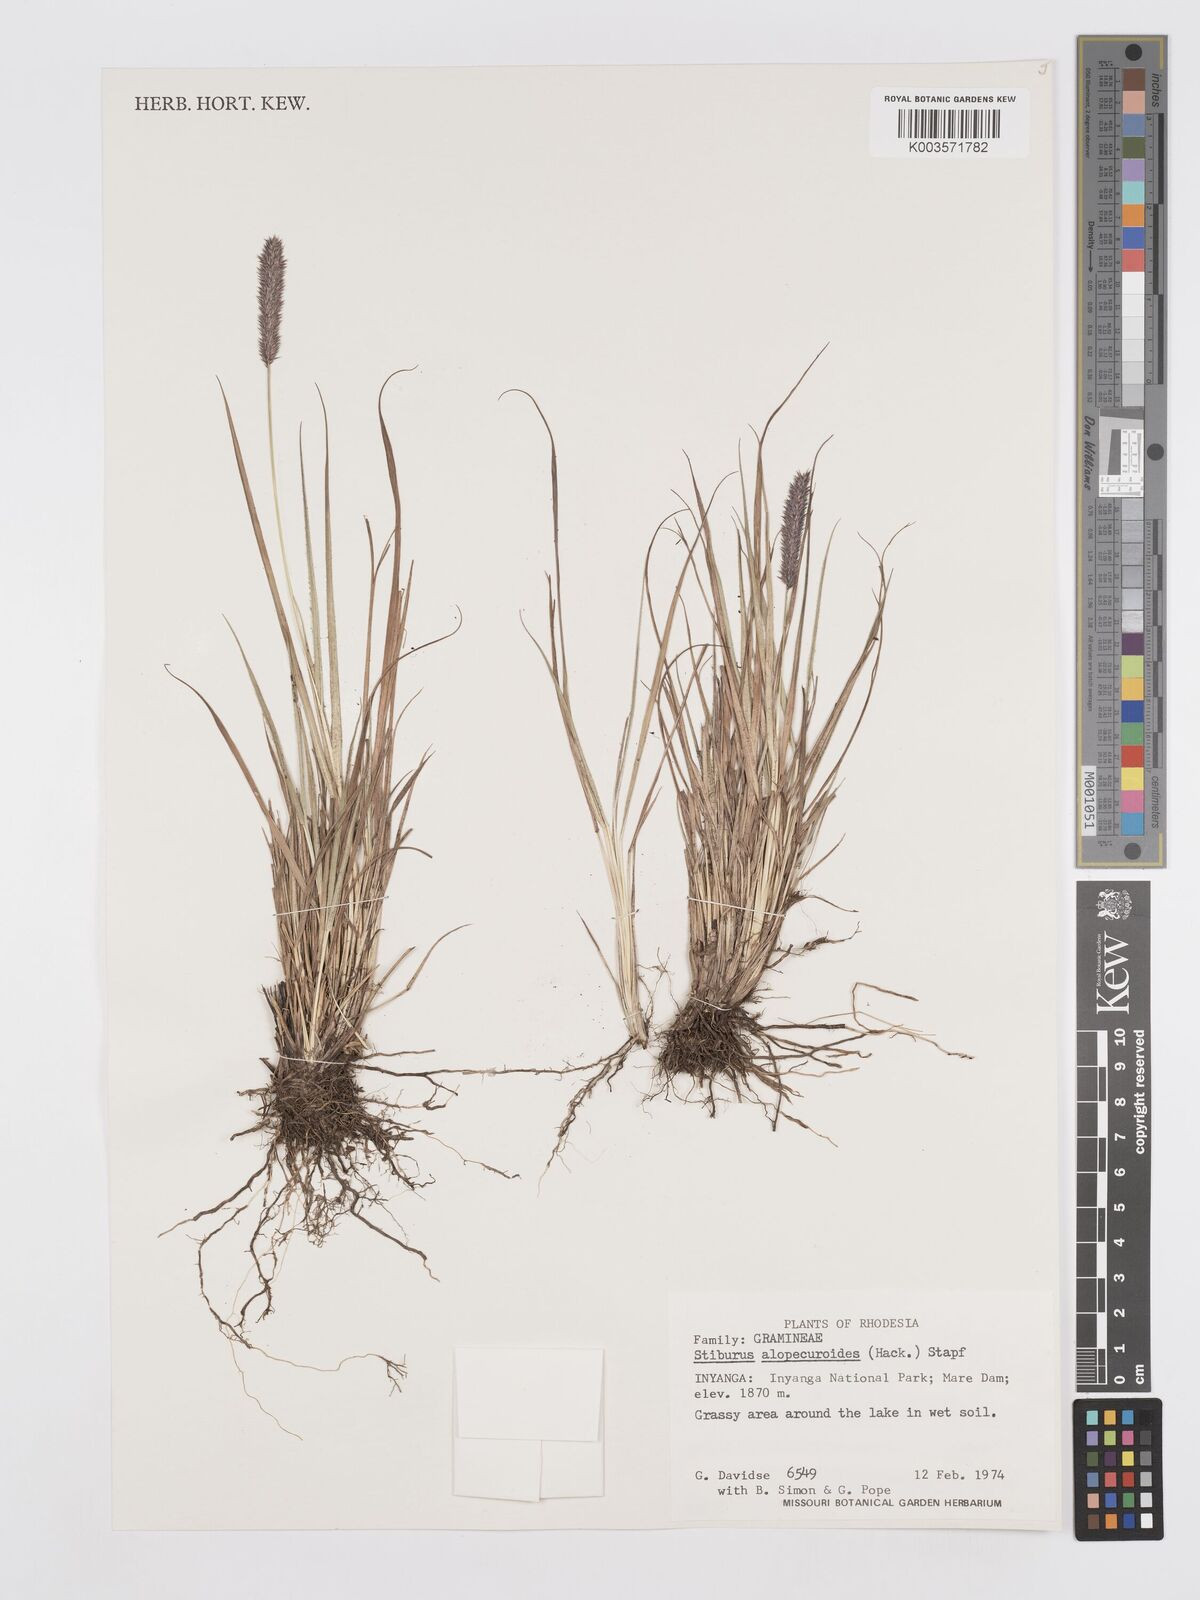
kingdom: Plantae
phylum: Tracheophyta
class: Liliopsida
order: Poales
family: Poaceae
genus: Stiburus
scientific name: Stiburus alopecuroides
